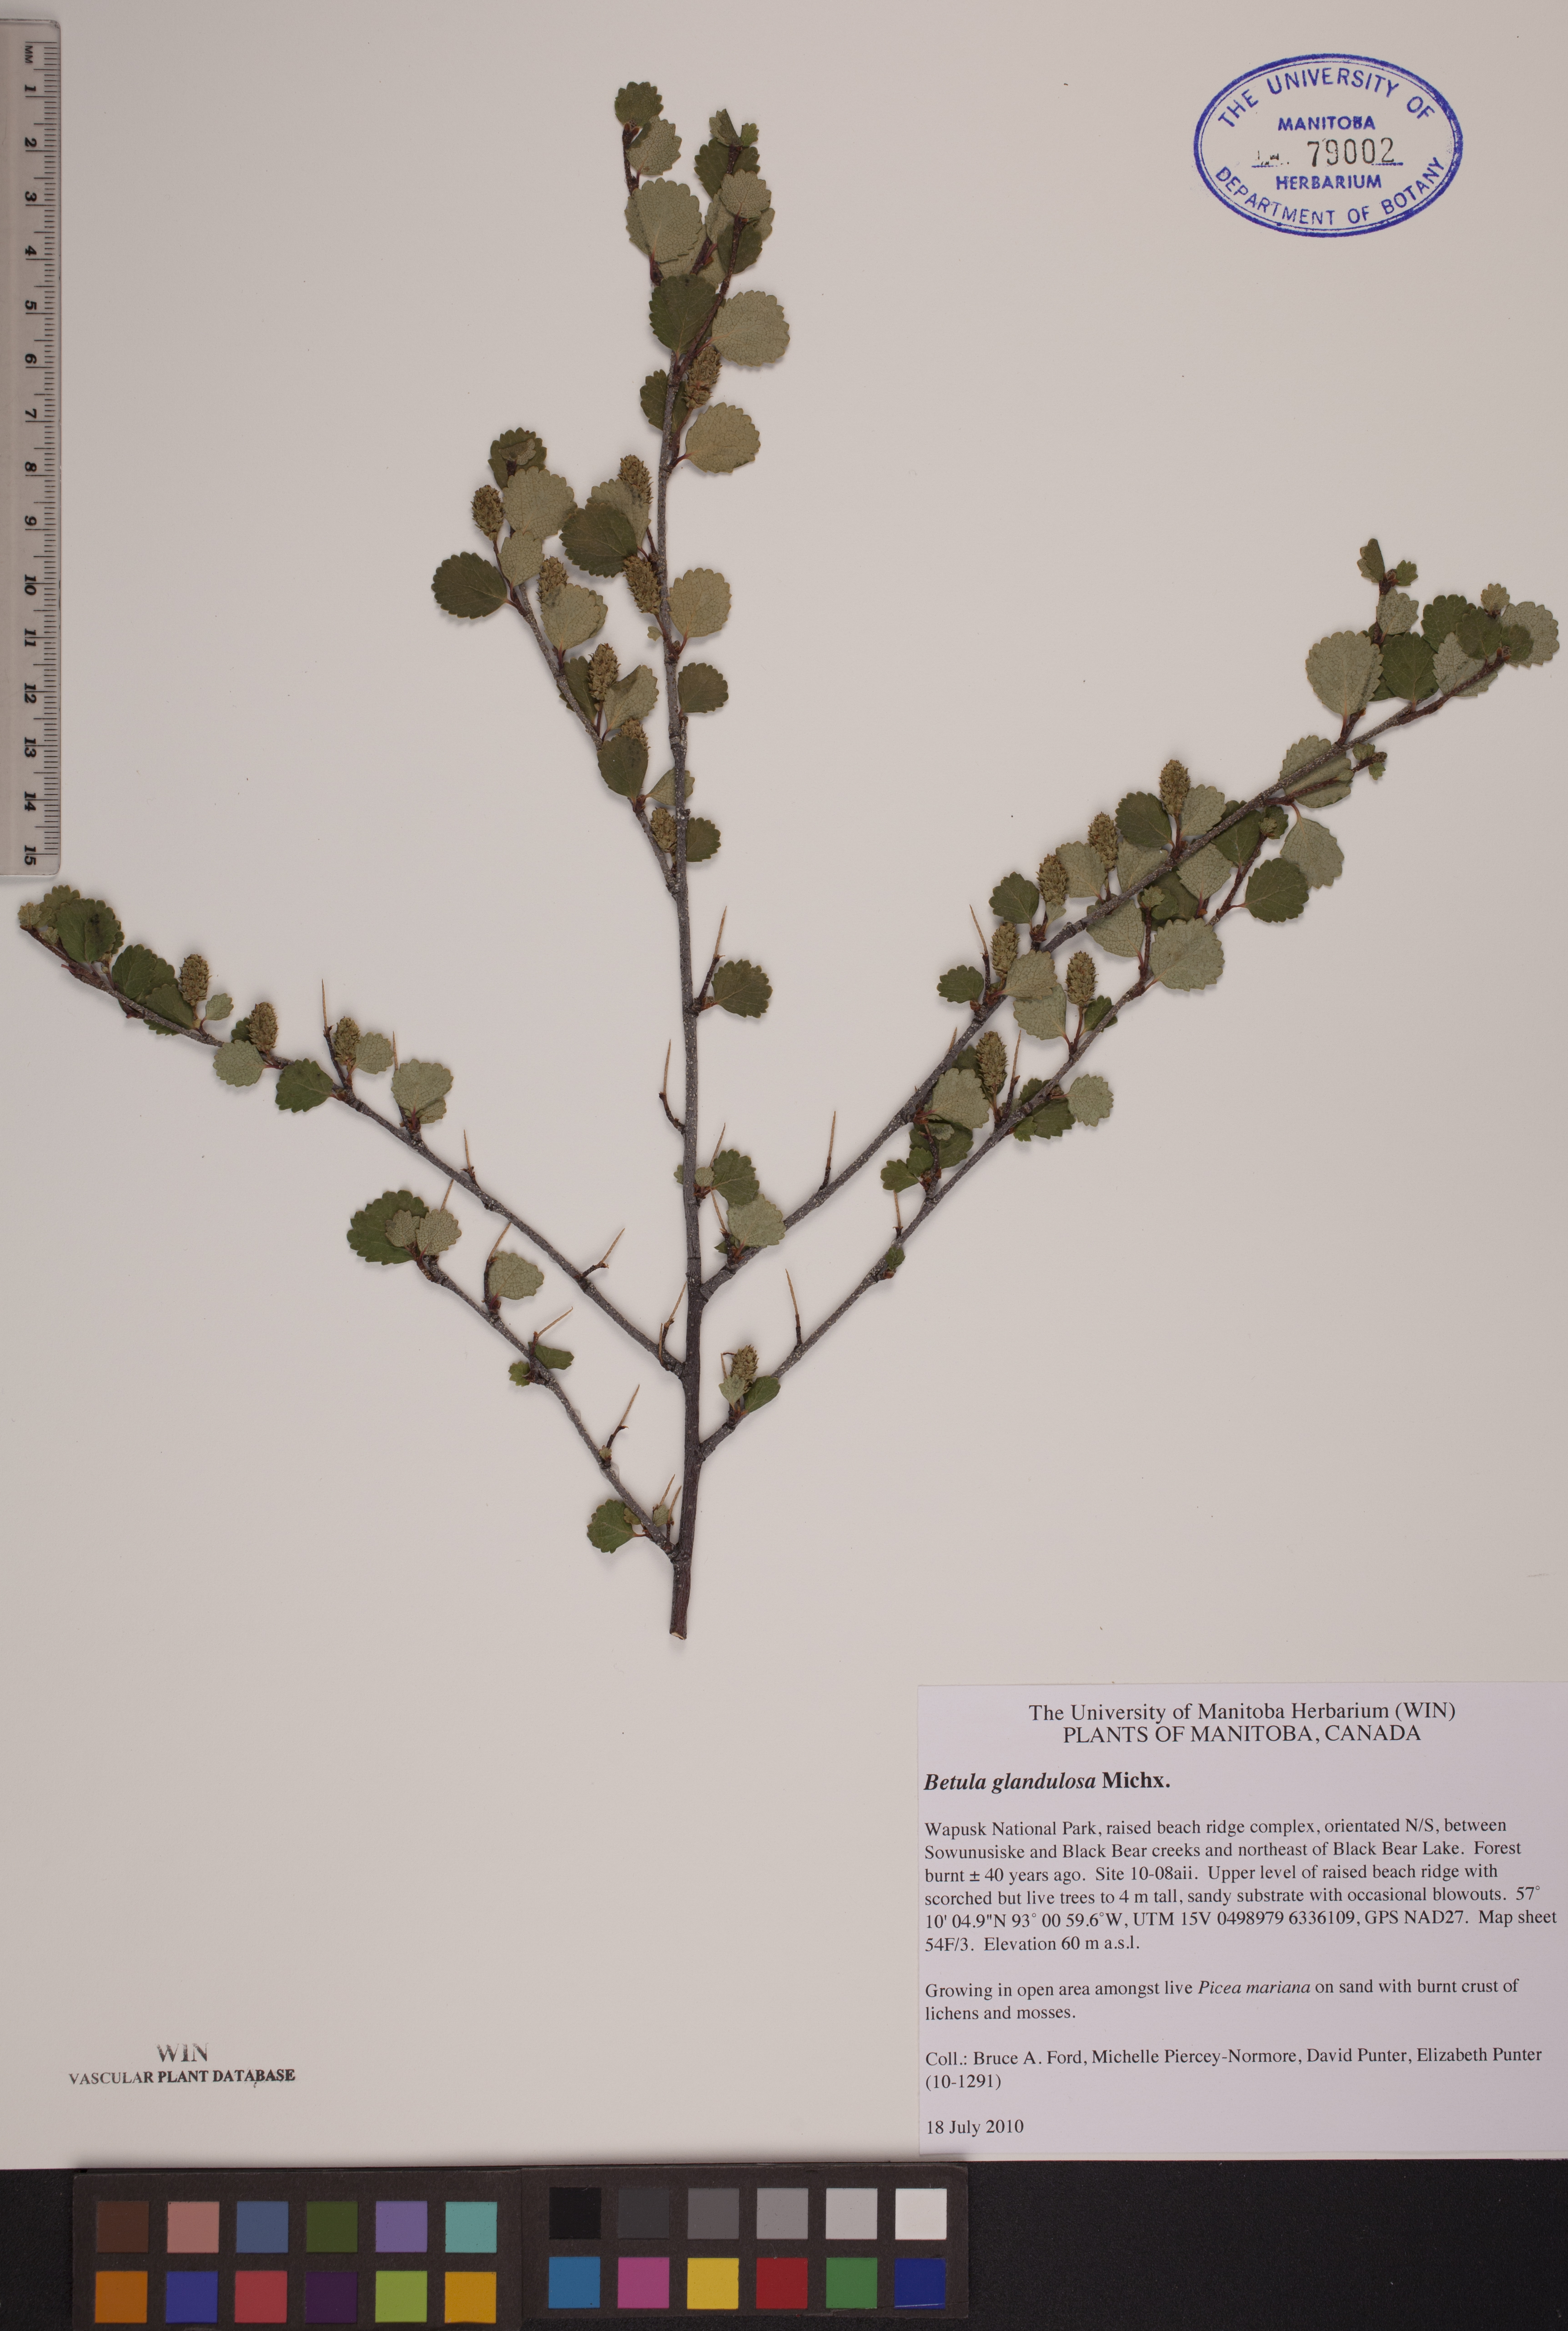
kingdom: Plantae
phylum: Tracheophyta
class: Magnoliopsida
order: Fagales
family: Betulaceae
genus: Betula
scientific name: Betula glandulosa
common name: Dwarf birch
